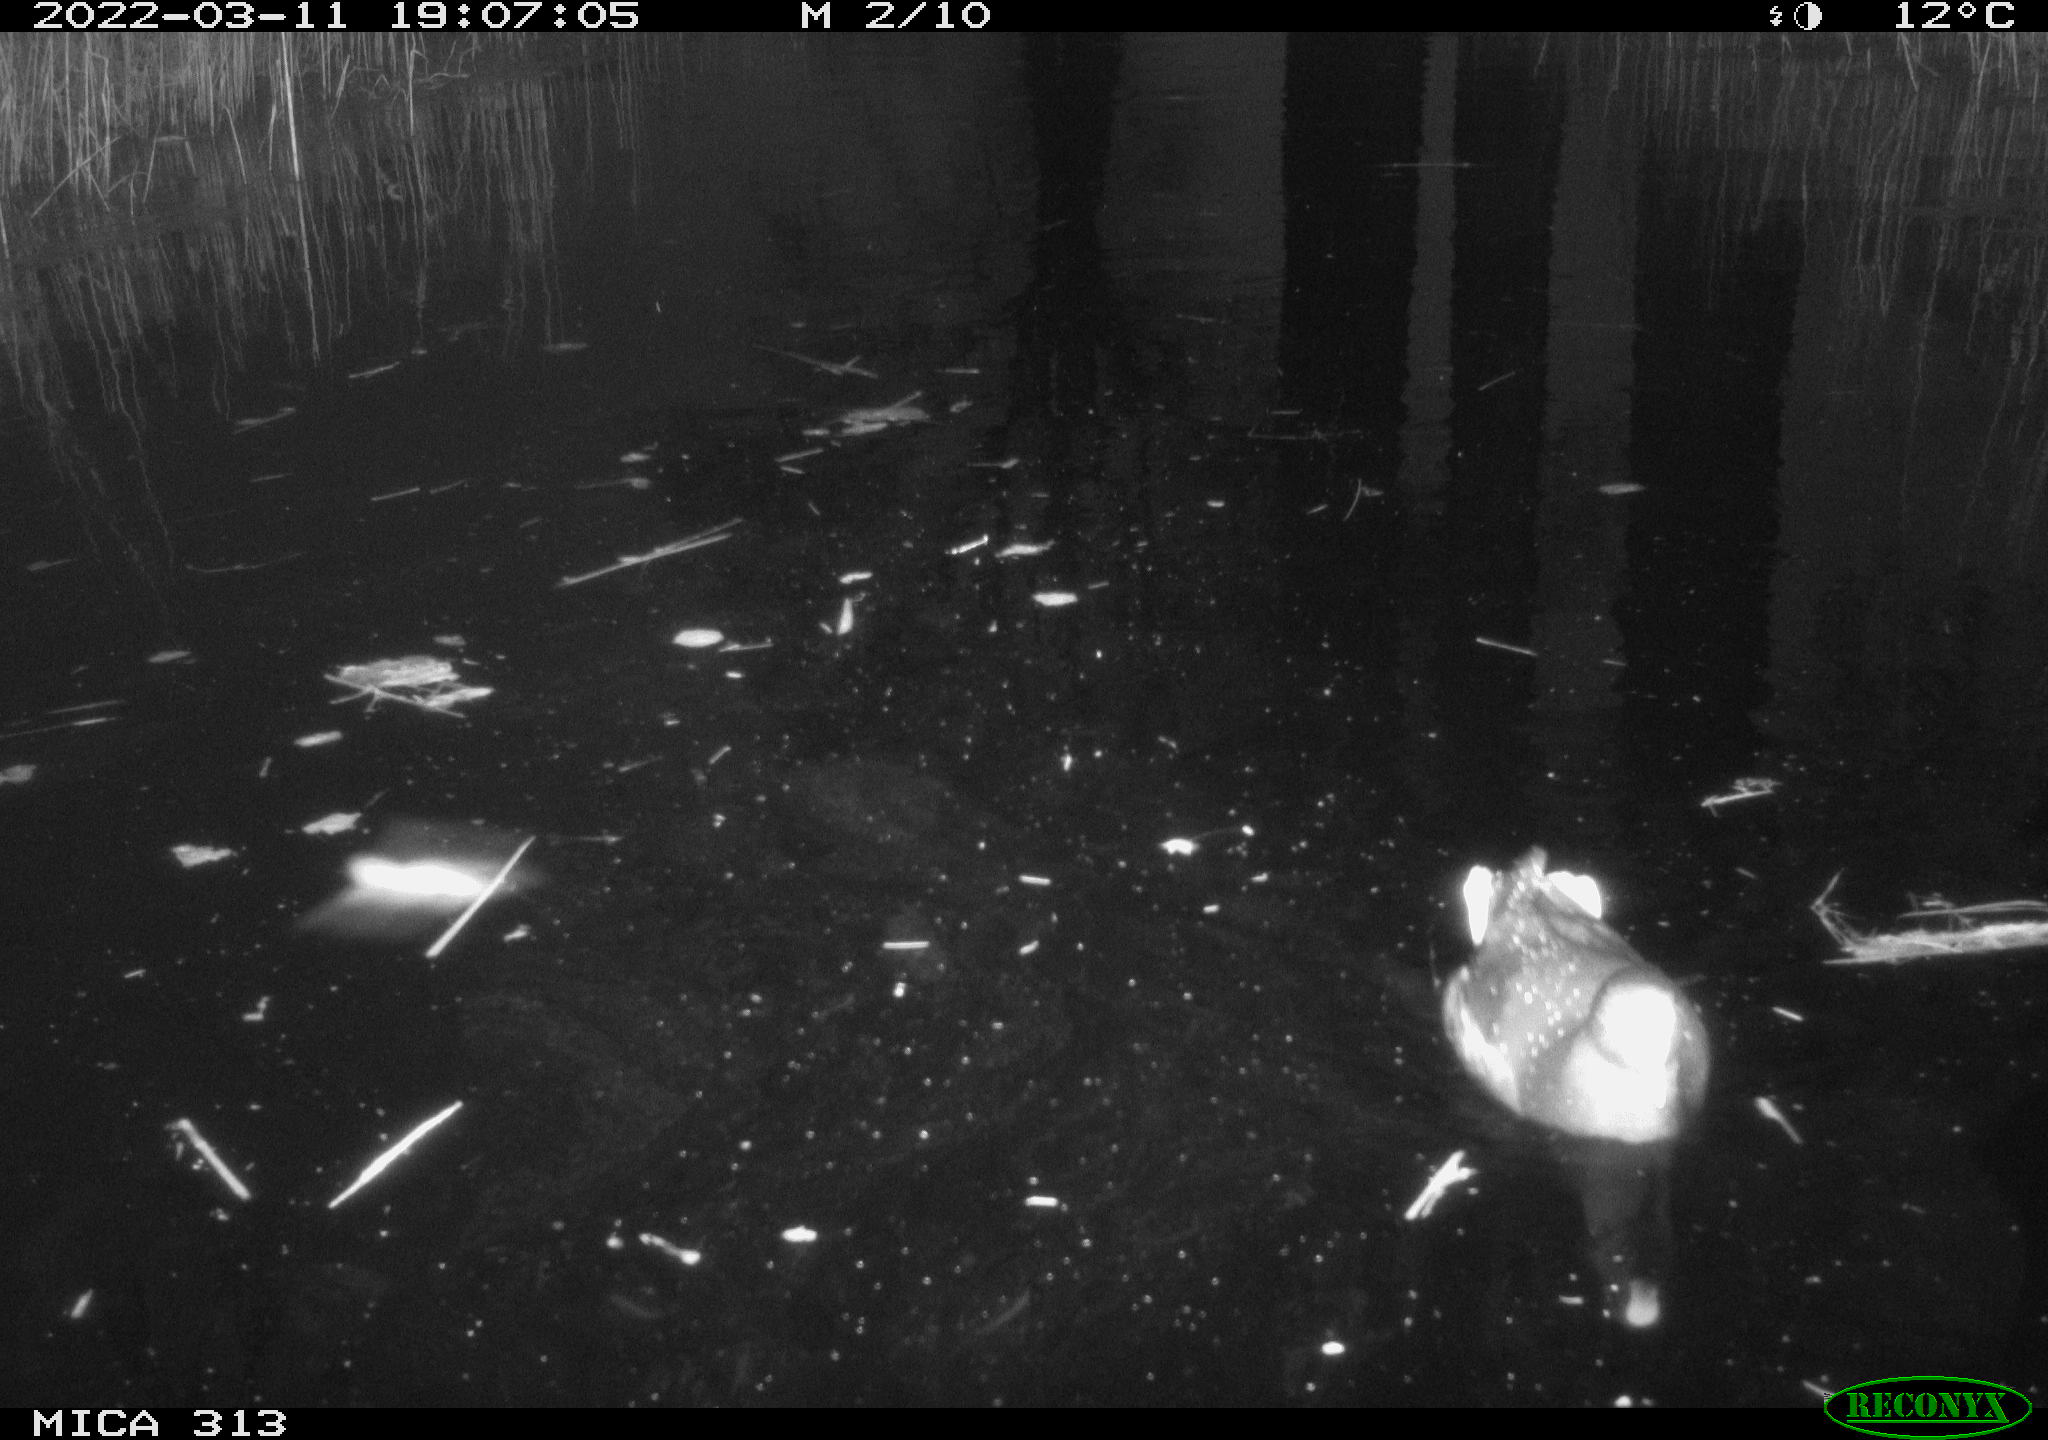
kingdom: Animalia
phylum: Chordata
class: Aves
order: Gruiformes
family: Rallidae
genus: Gallinula
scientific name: Gallinula chloropus
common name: Common moorhen
